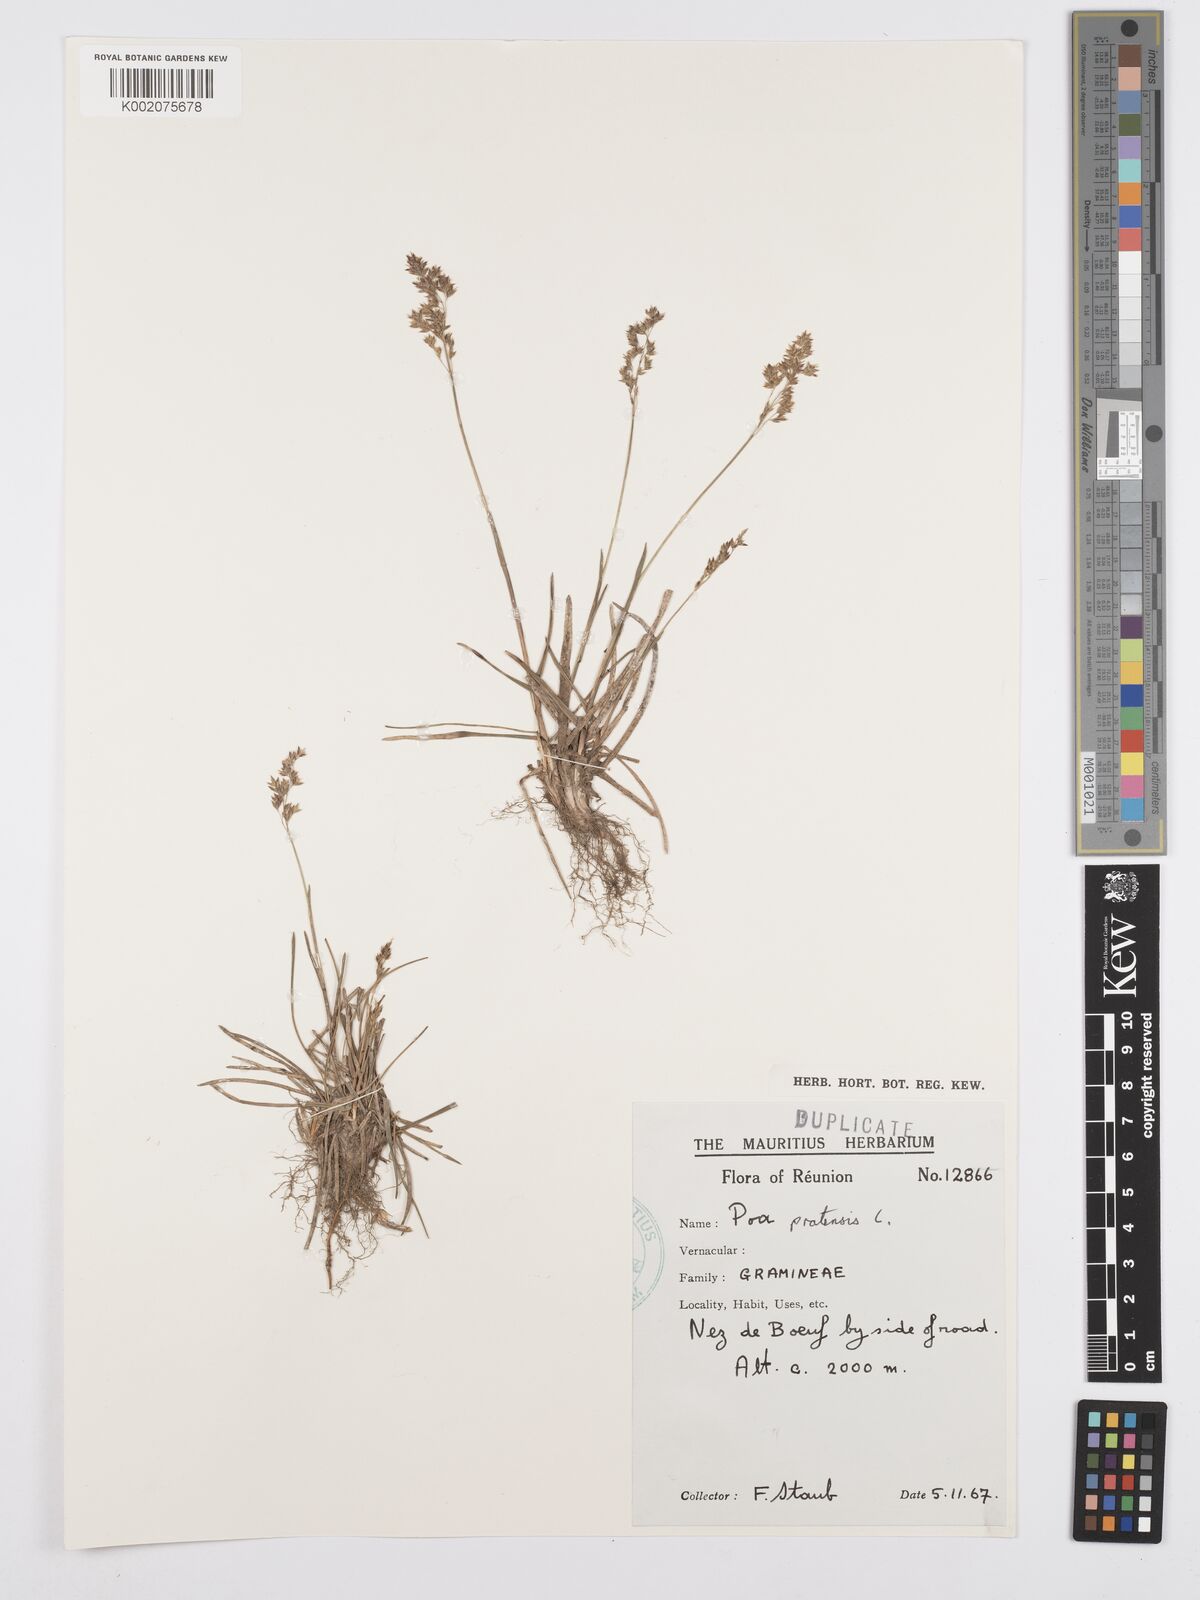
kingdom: Plantae
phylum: Tracheophyta
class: Liliopsida
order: Poales
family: Poaceae
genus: Poa
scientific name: Poa pratensis
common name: Kentucky bluegrass
